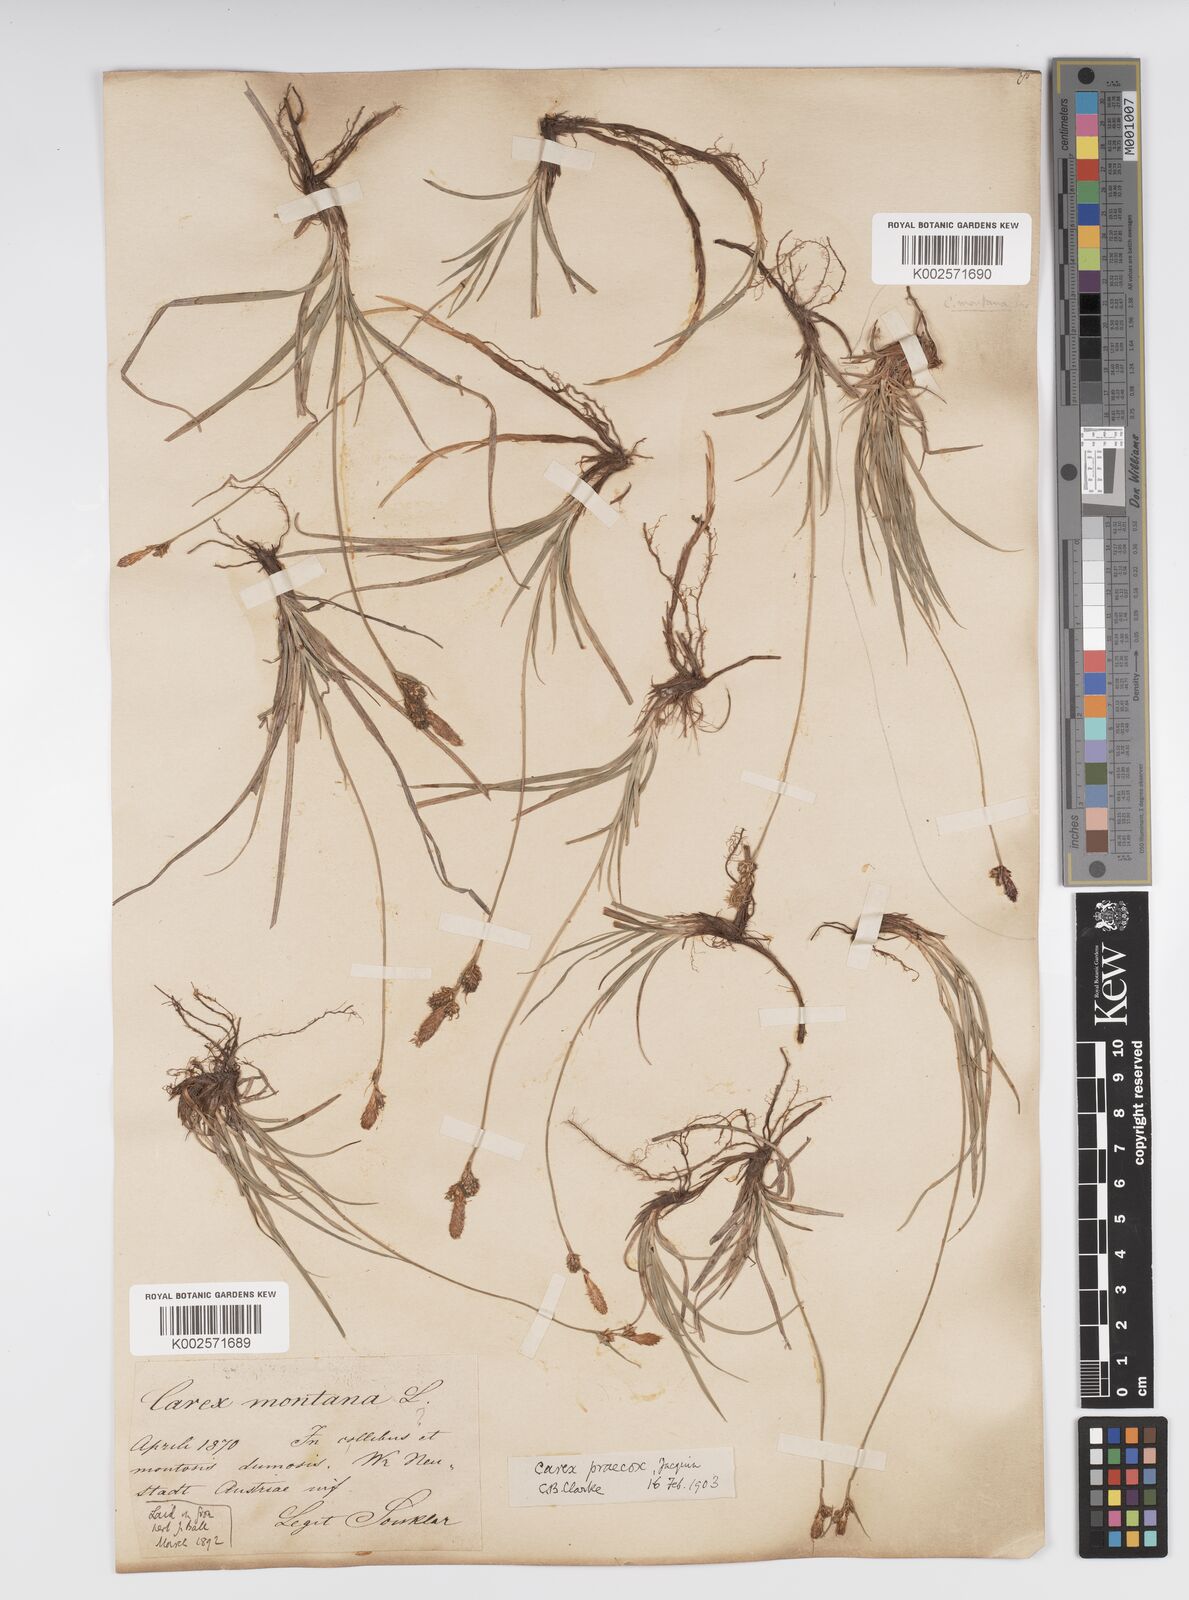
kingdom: Plantae
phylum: Tracheophyta
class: Liliopsida
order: Poales
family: Cyperaceae
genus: Carex
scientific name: Carex caryophyllea
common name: Spring sedge
